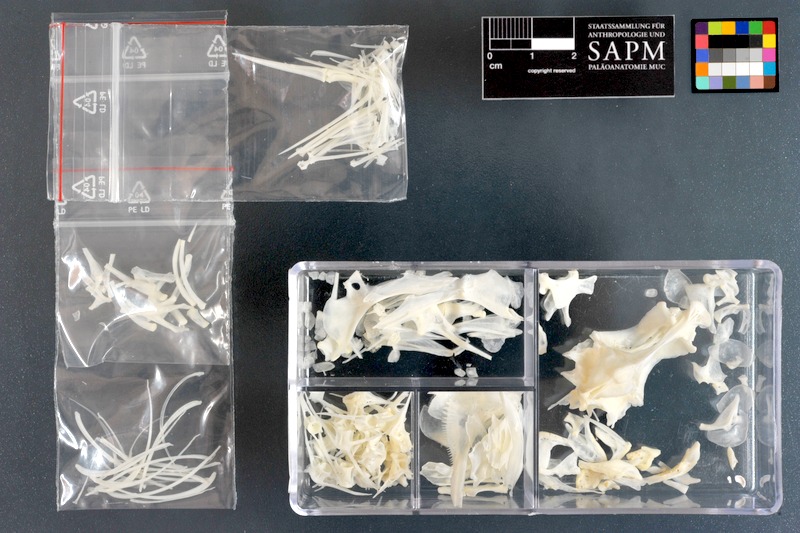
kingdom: Animalia
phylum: Chordata
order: Perciformes
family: Haemulidae
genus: Pomadasys
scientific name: Pomadasys stridens
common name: Striped piggy
